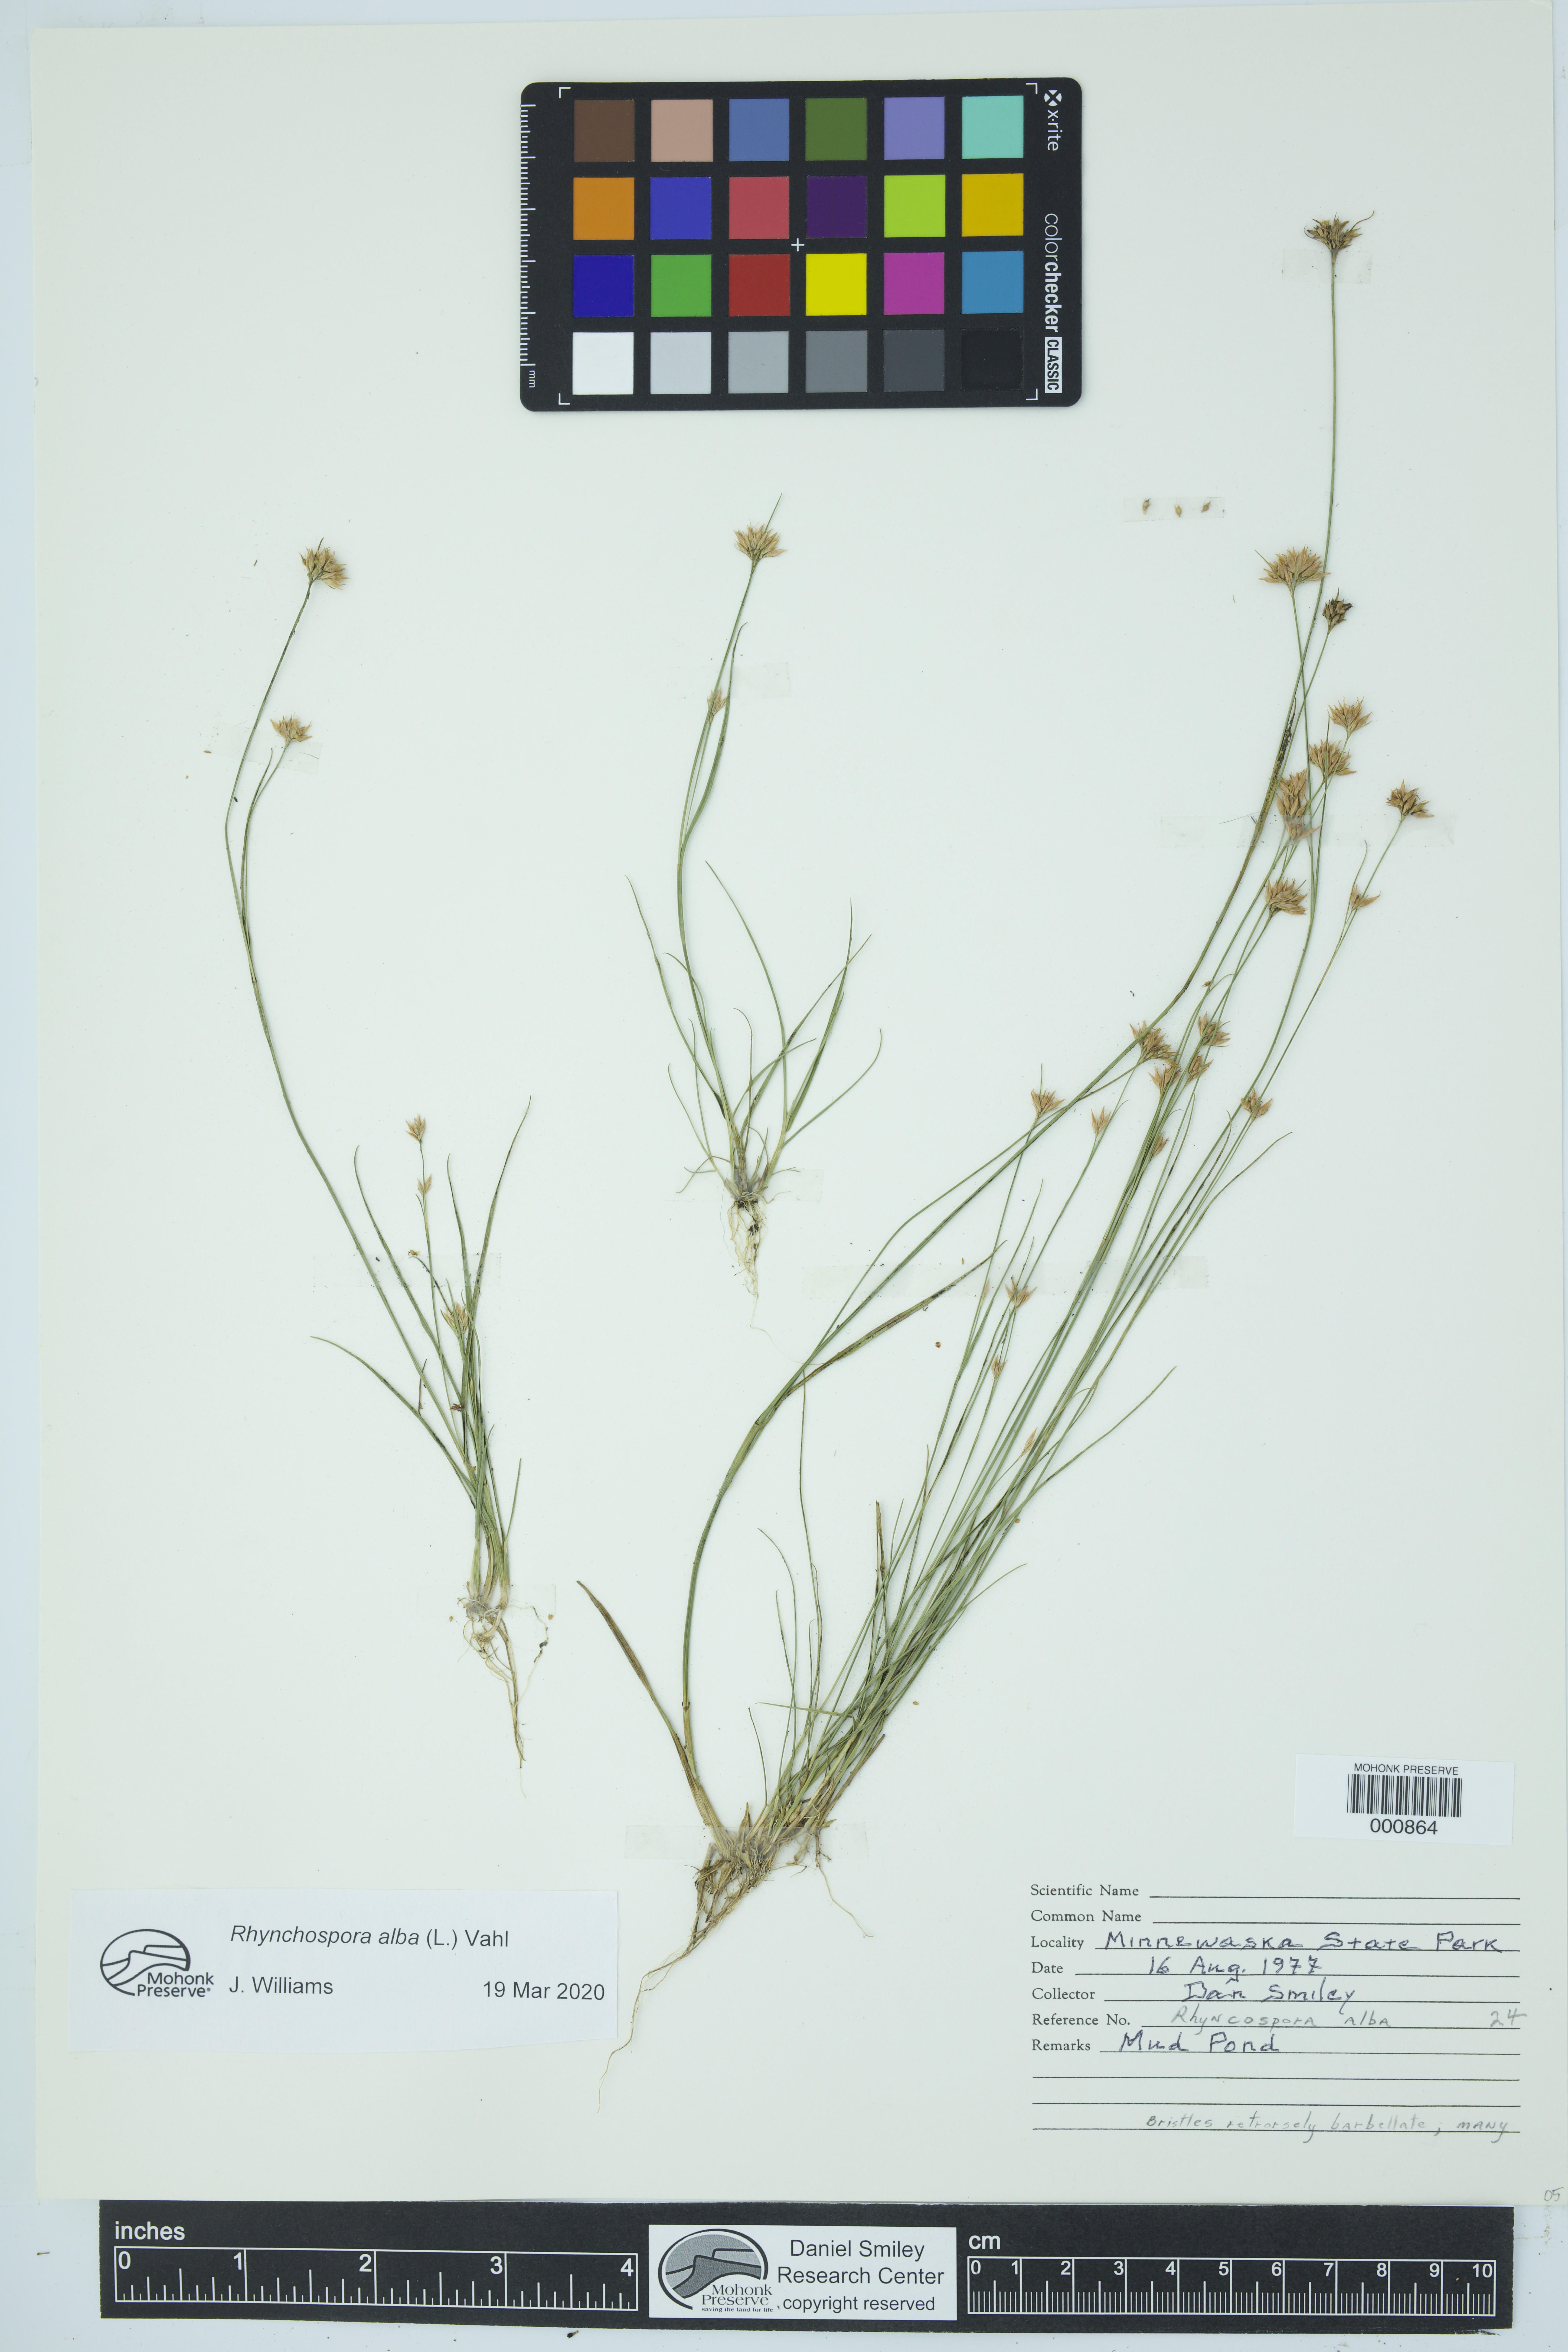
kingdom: Plantae
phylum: Tracheophyta
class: Liliopsida
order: Poales
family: Cyperaceae
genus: Rhynchospora
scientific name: Rhynchospora alba
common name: White beak-sedge
